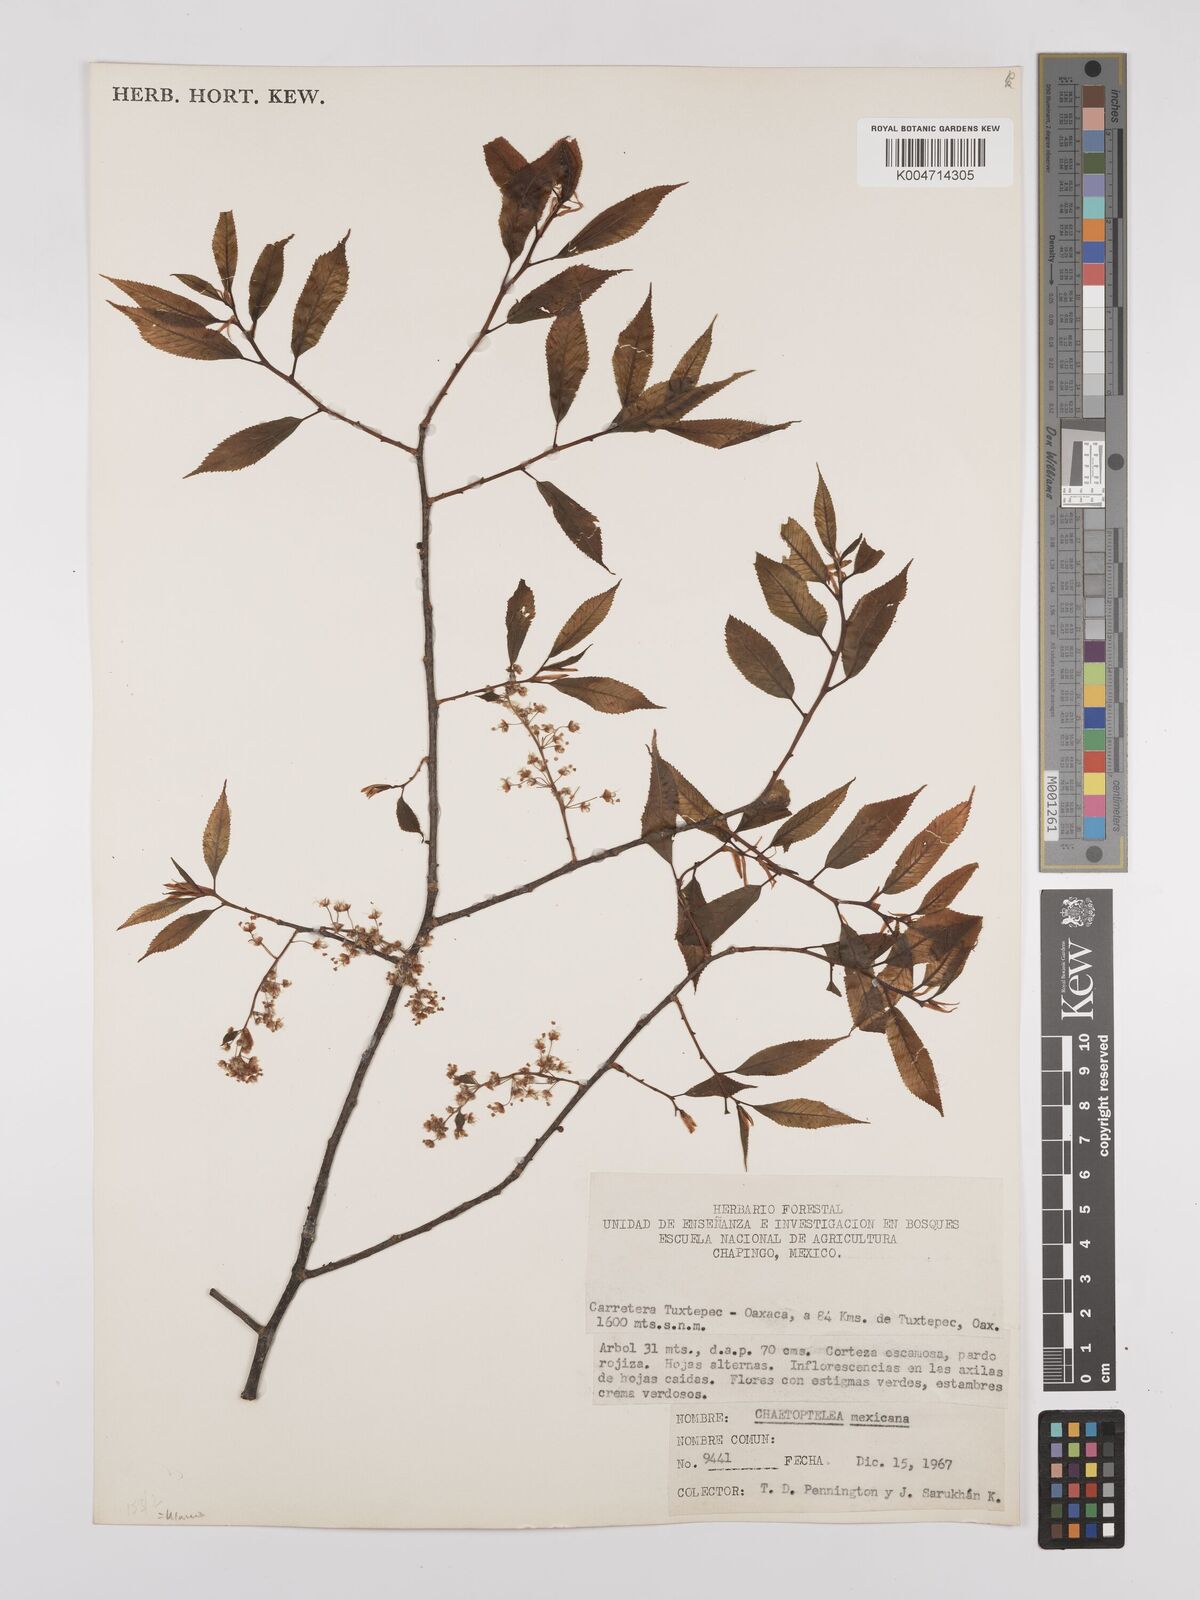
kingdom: Plantae
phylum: Tracheophyta
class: Magnoliopsida
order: Rosales
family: Ulmaceae
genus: Ulmus
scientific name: Ulmus mexicana
